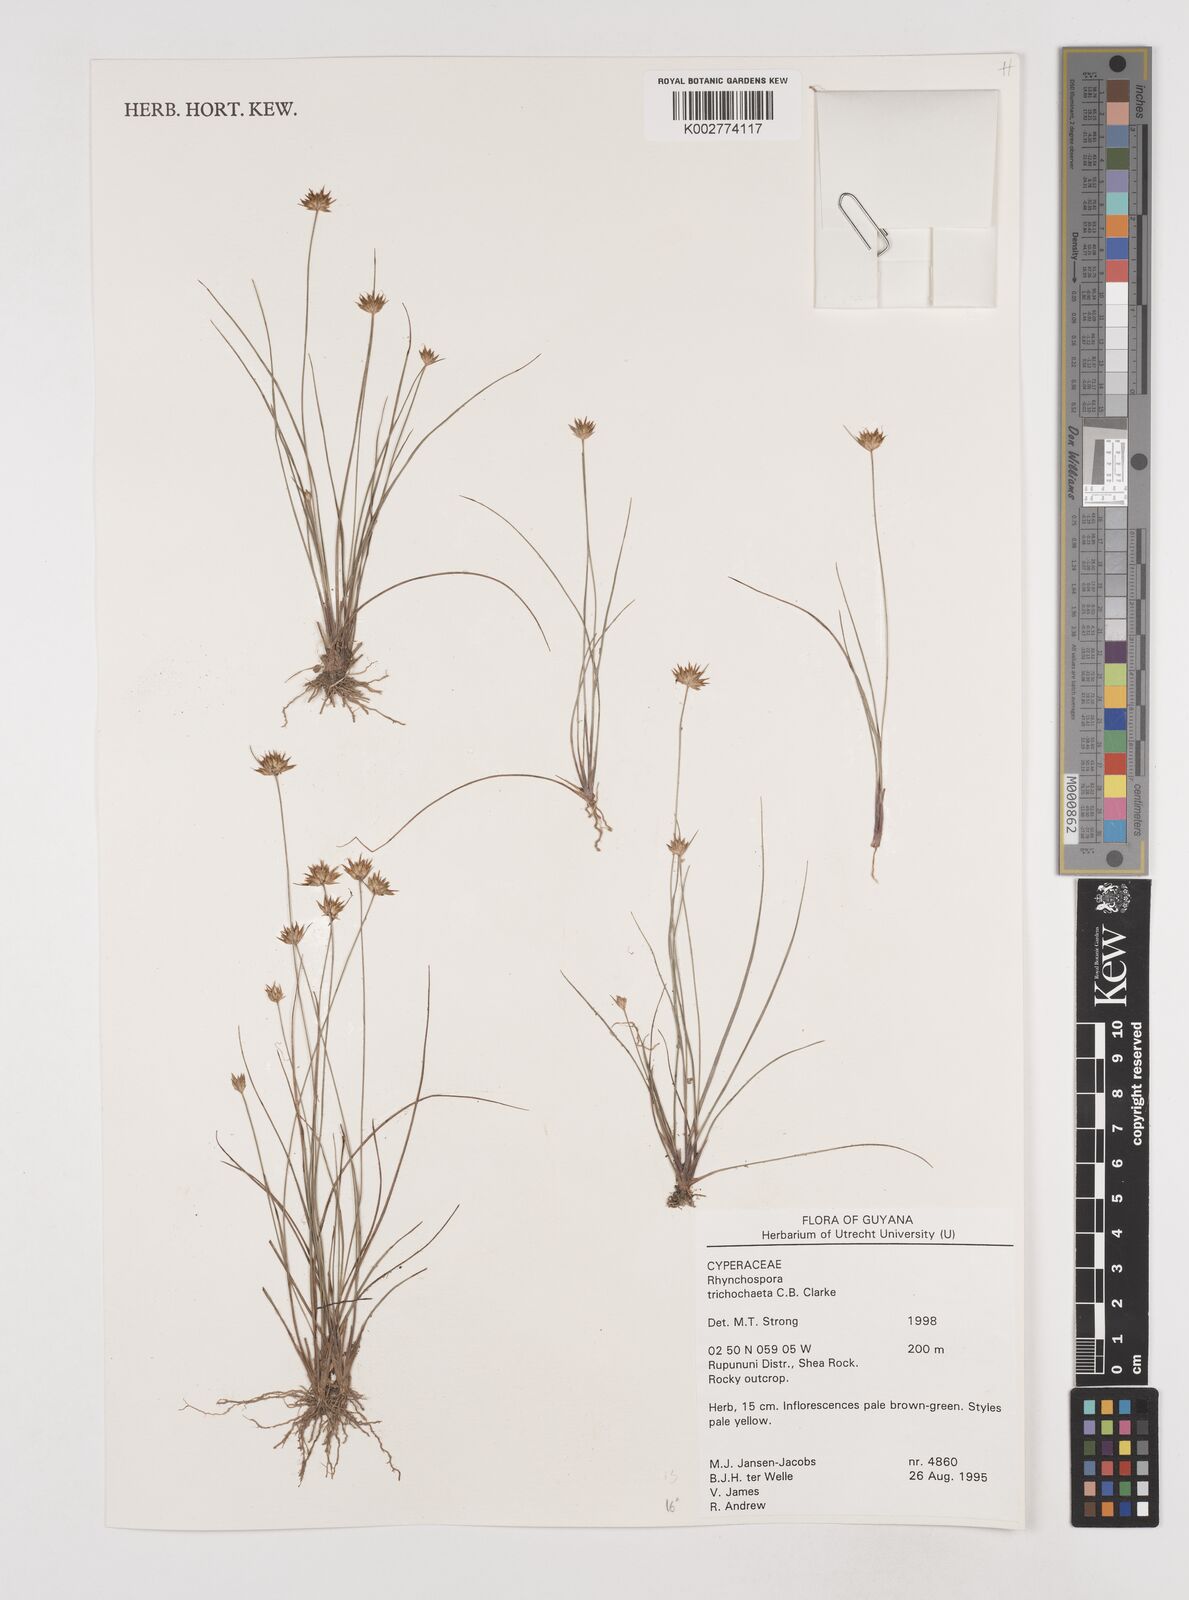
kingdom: Plantae
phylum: Tracheophyta
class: Liliopsida
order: Poales
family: Cyperaceae
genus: Rhynchospora
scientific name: Rhynchospora trichochaeta
